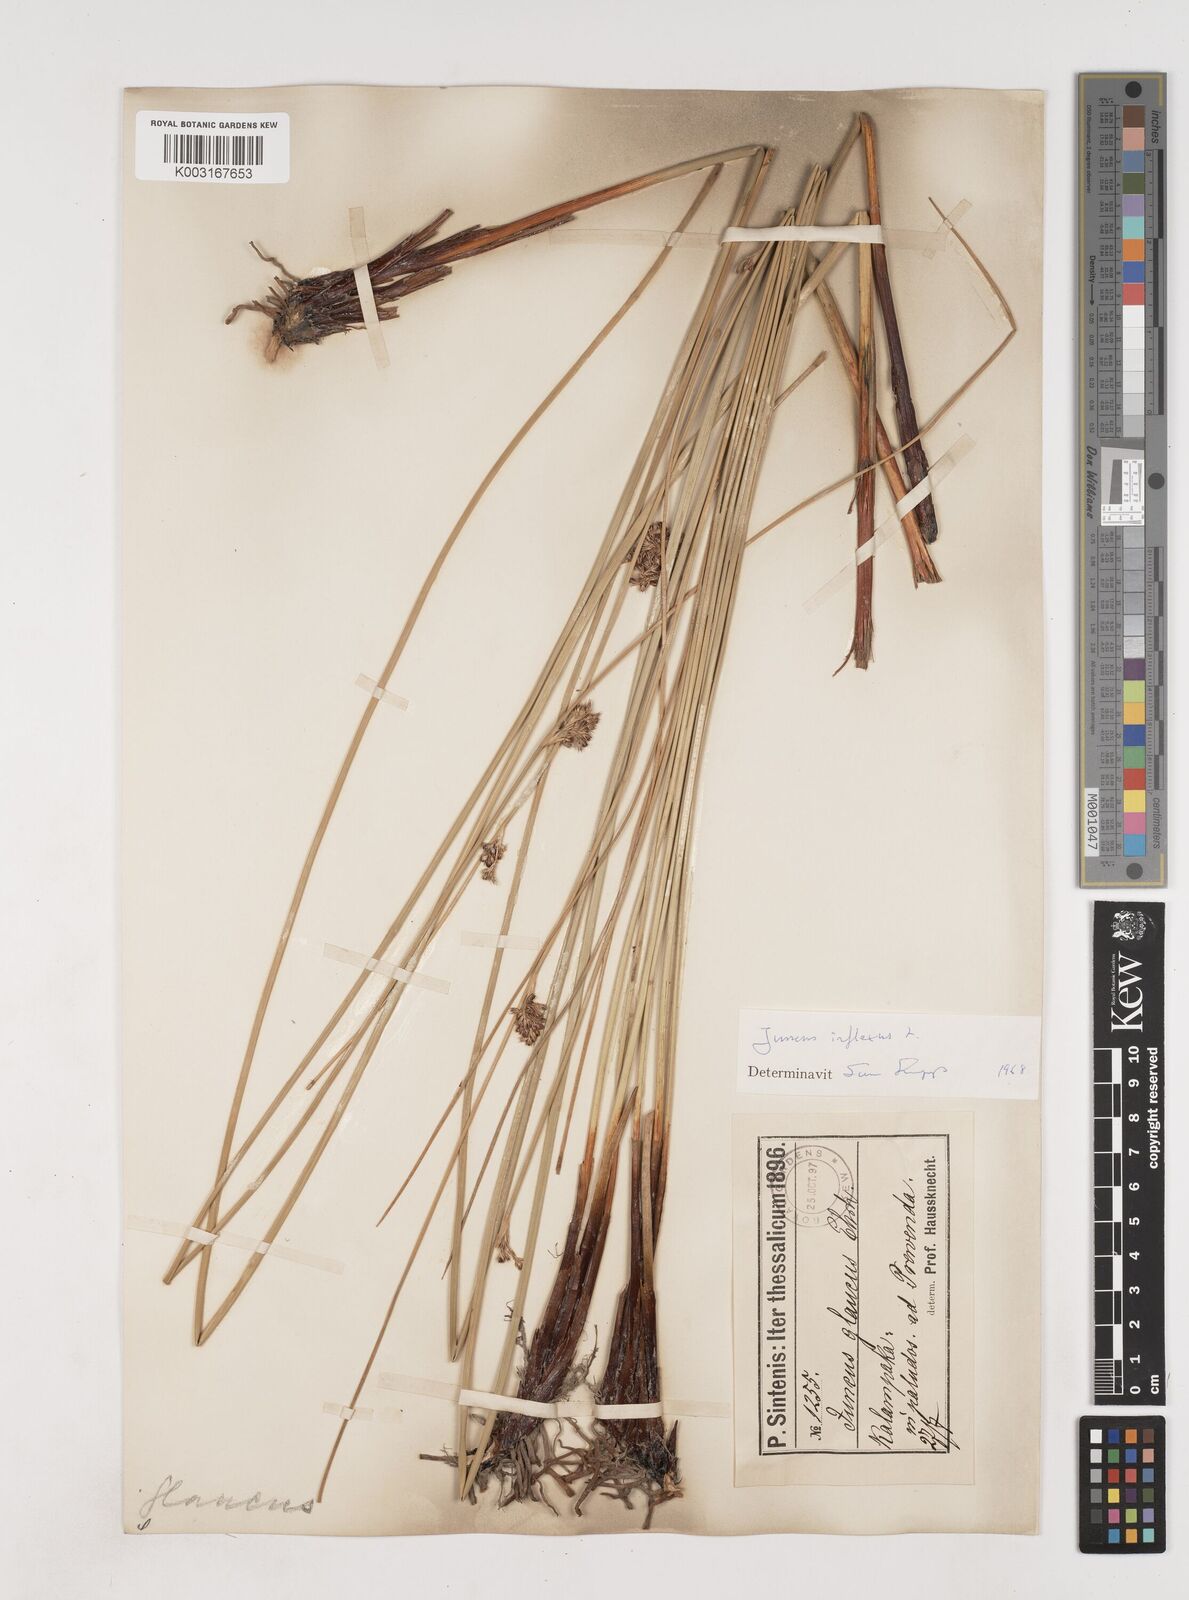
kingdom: Plantae
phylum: Tracheophyta
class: Liliopsida
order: Poales
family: Juncaceae
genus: Juncus
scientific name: Juncus inflexus
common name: Hard rush
